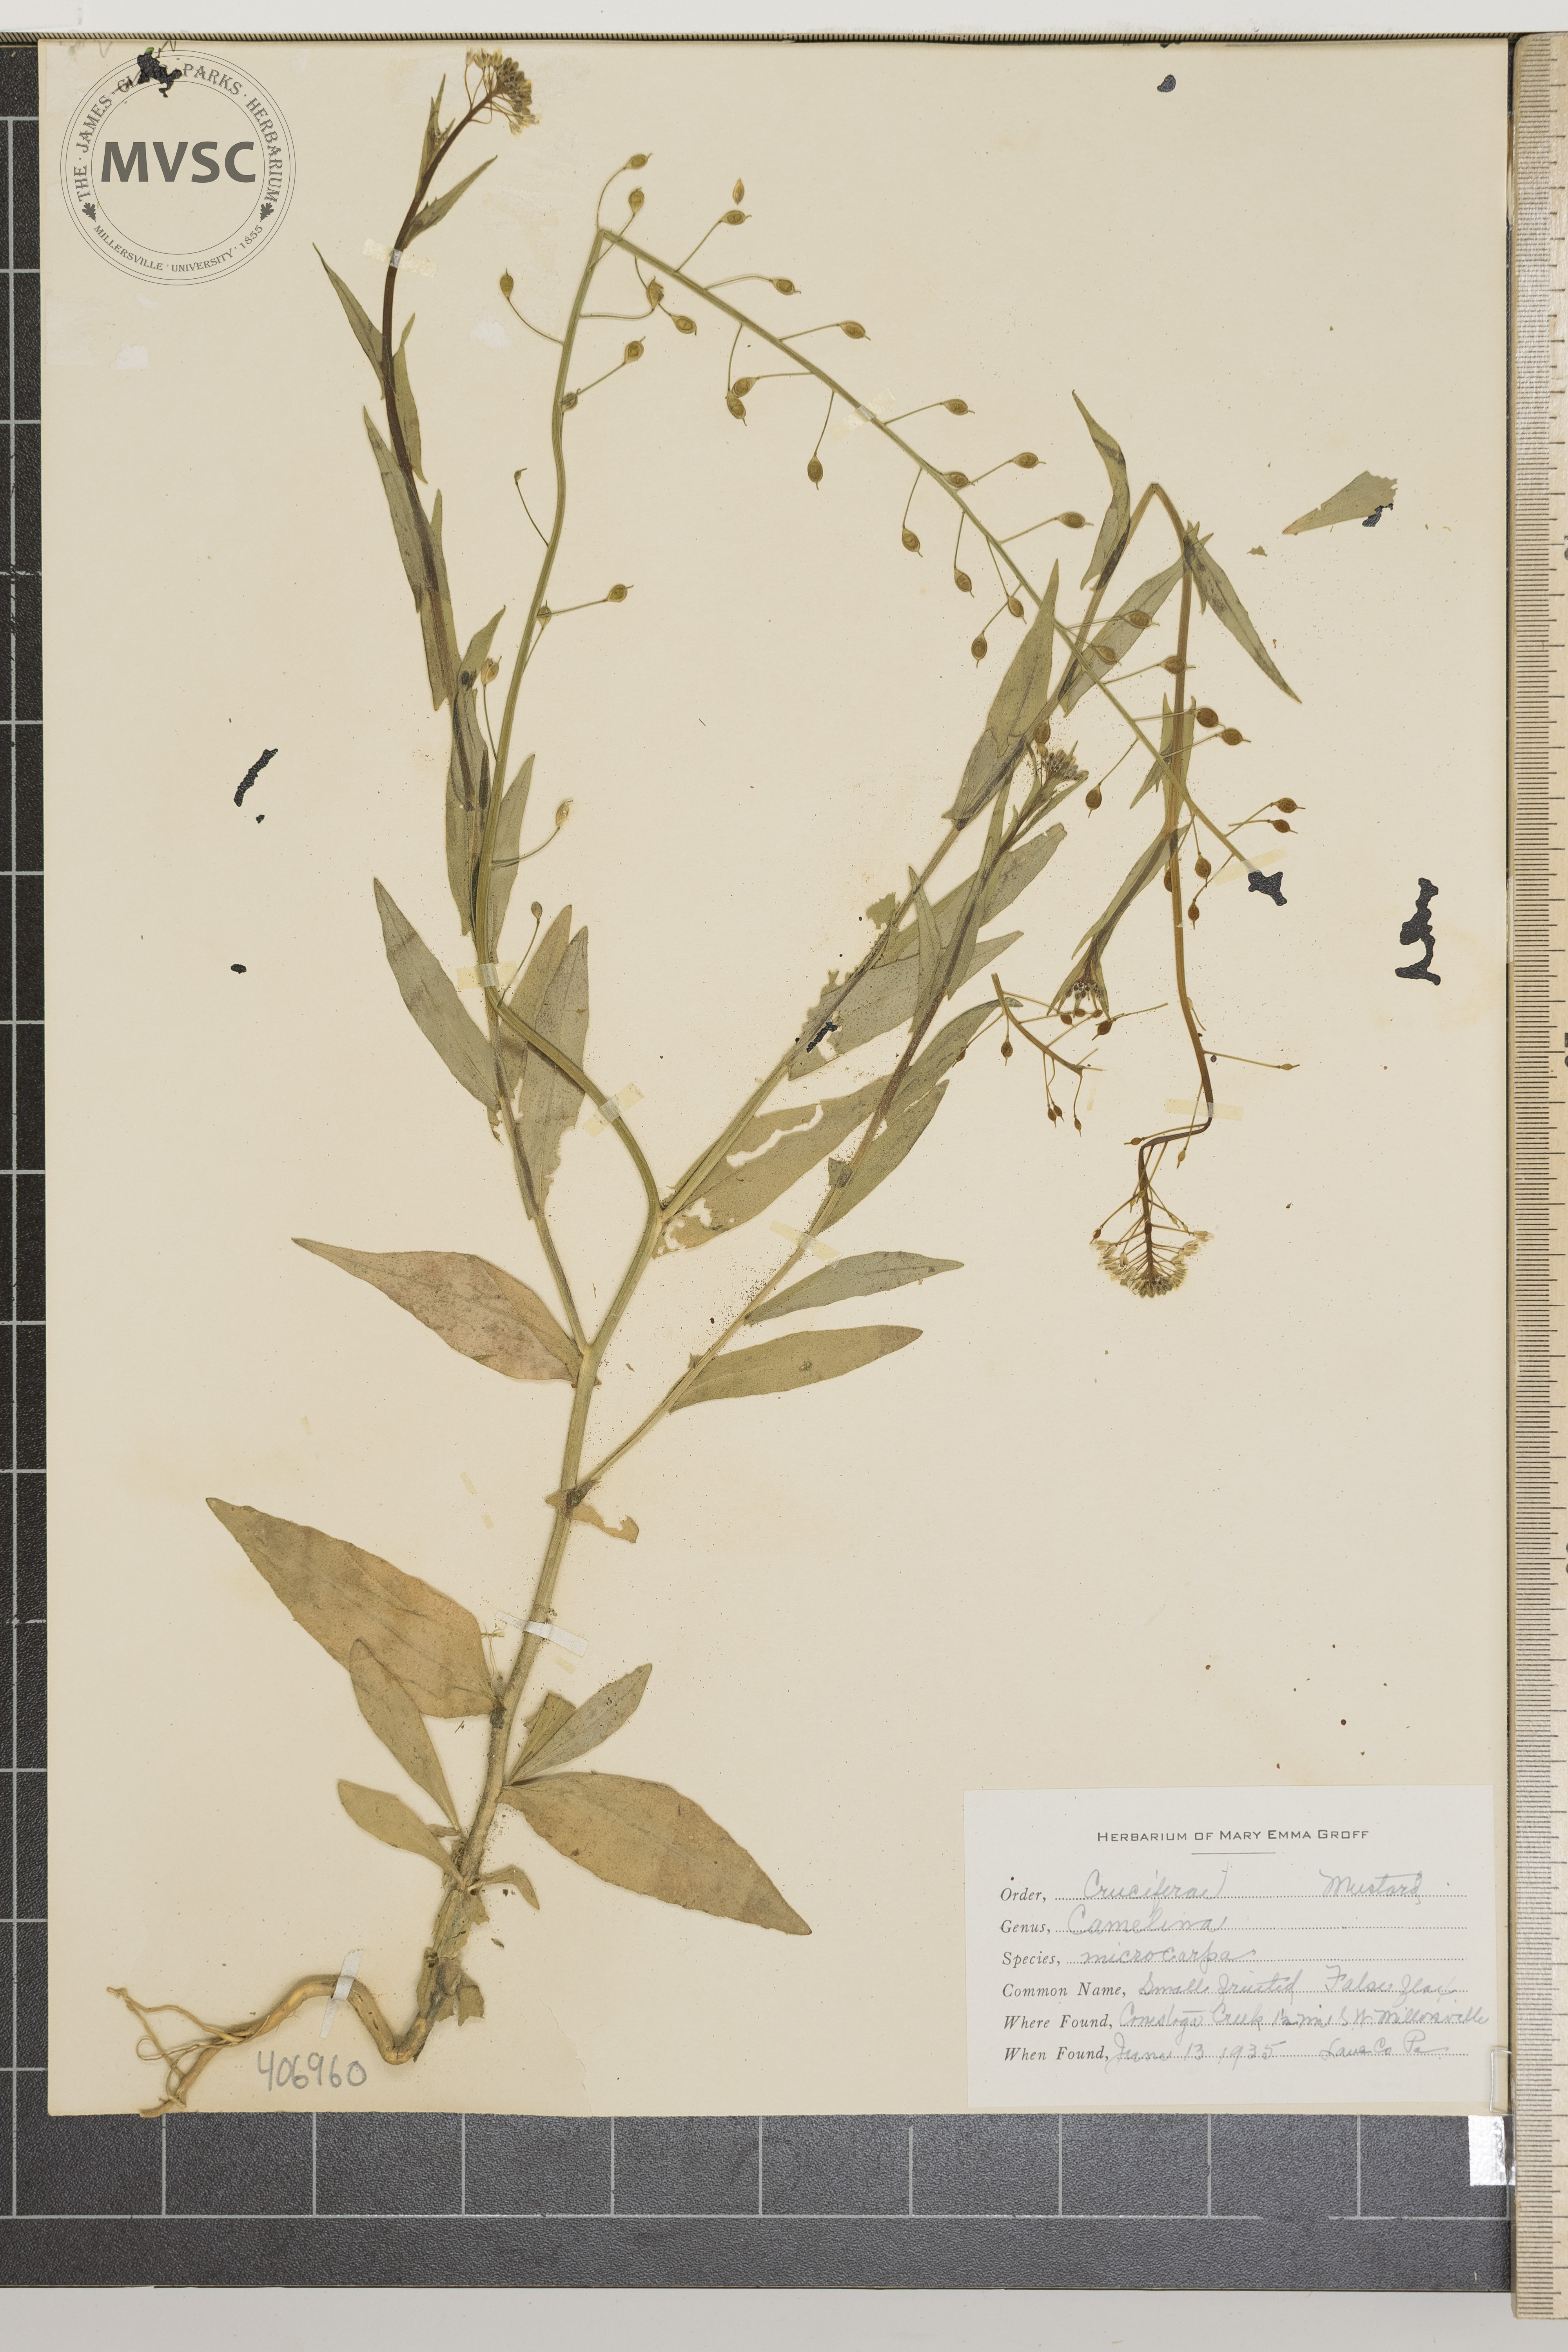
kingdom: Plantae
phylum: Tracheophyta
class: Magnoliopsida
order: Brassicales
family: Brassicaceae
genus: Camelina
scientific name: Camelina microcarpa
